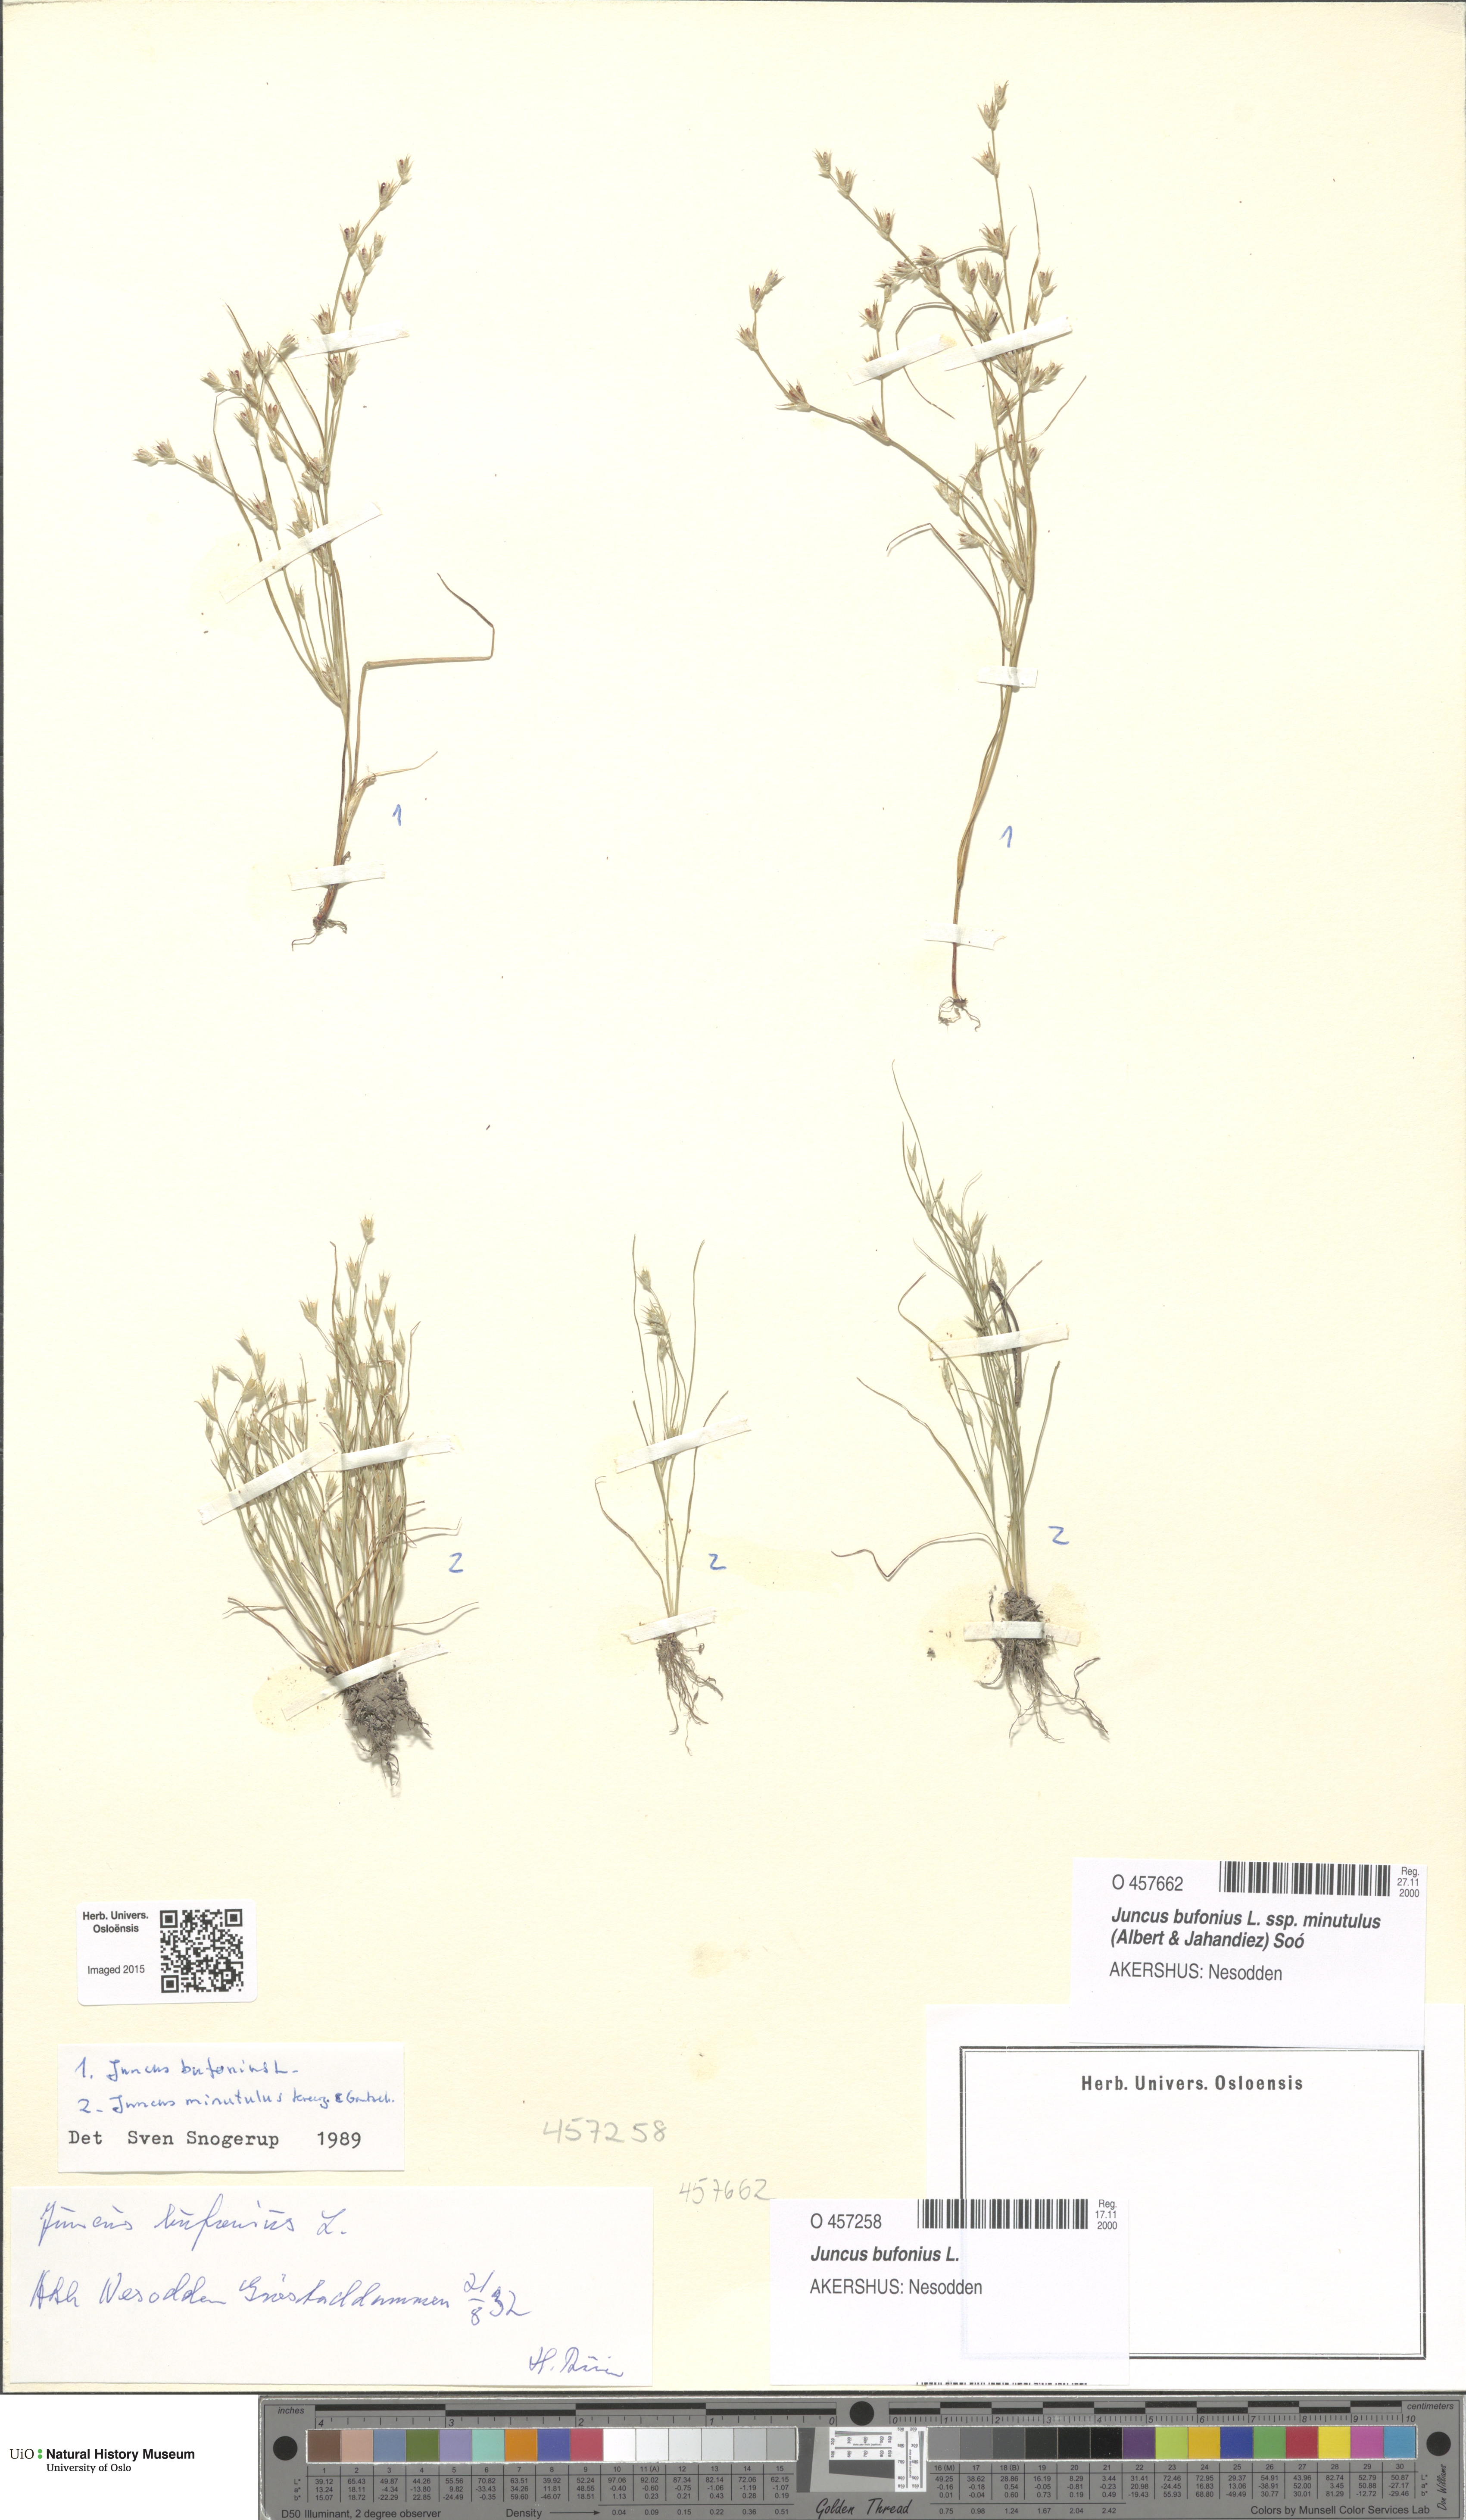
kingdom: Plantae
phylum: Tracheophyta
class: Liliopsida
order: Poales
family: Juncaceae
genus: Juncus
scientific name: Juncus bufonius
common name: Toad rush
